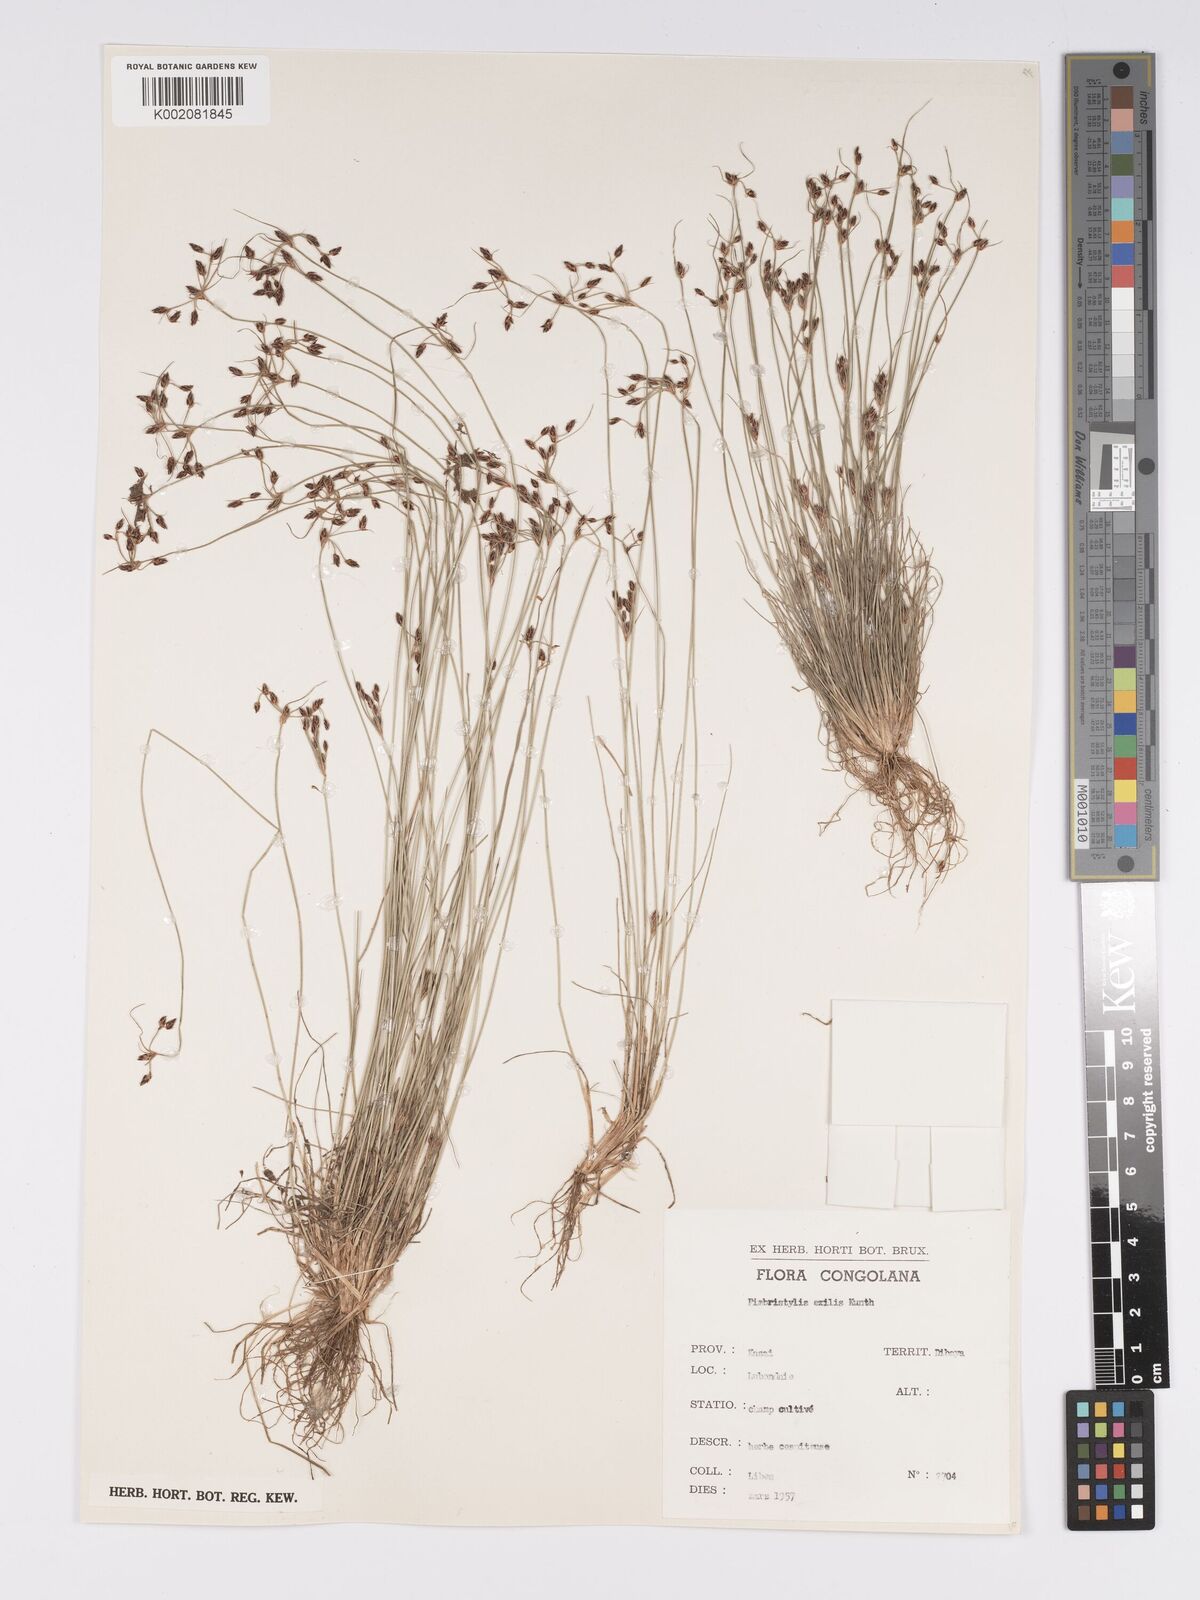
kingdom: Plantae
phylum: Tracheophyta
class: Liliopsida
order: Poales
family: Cyperaceae
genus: Bulbostylis
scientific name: Bulbostylis hispidula
